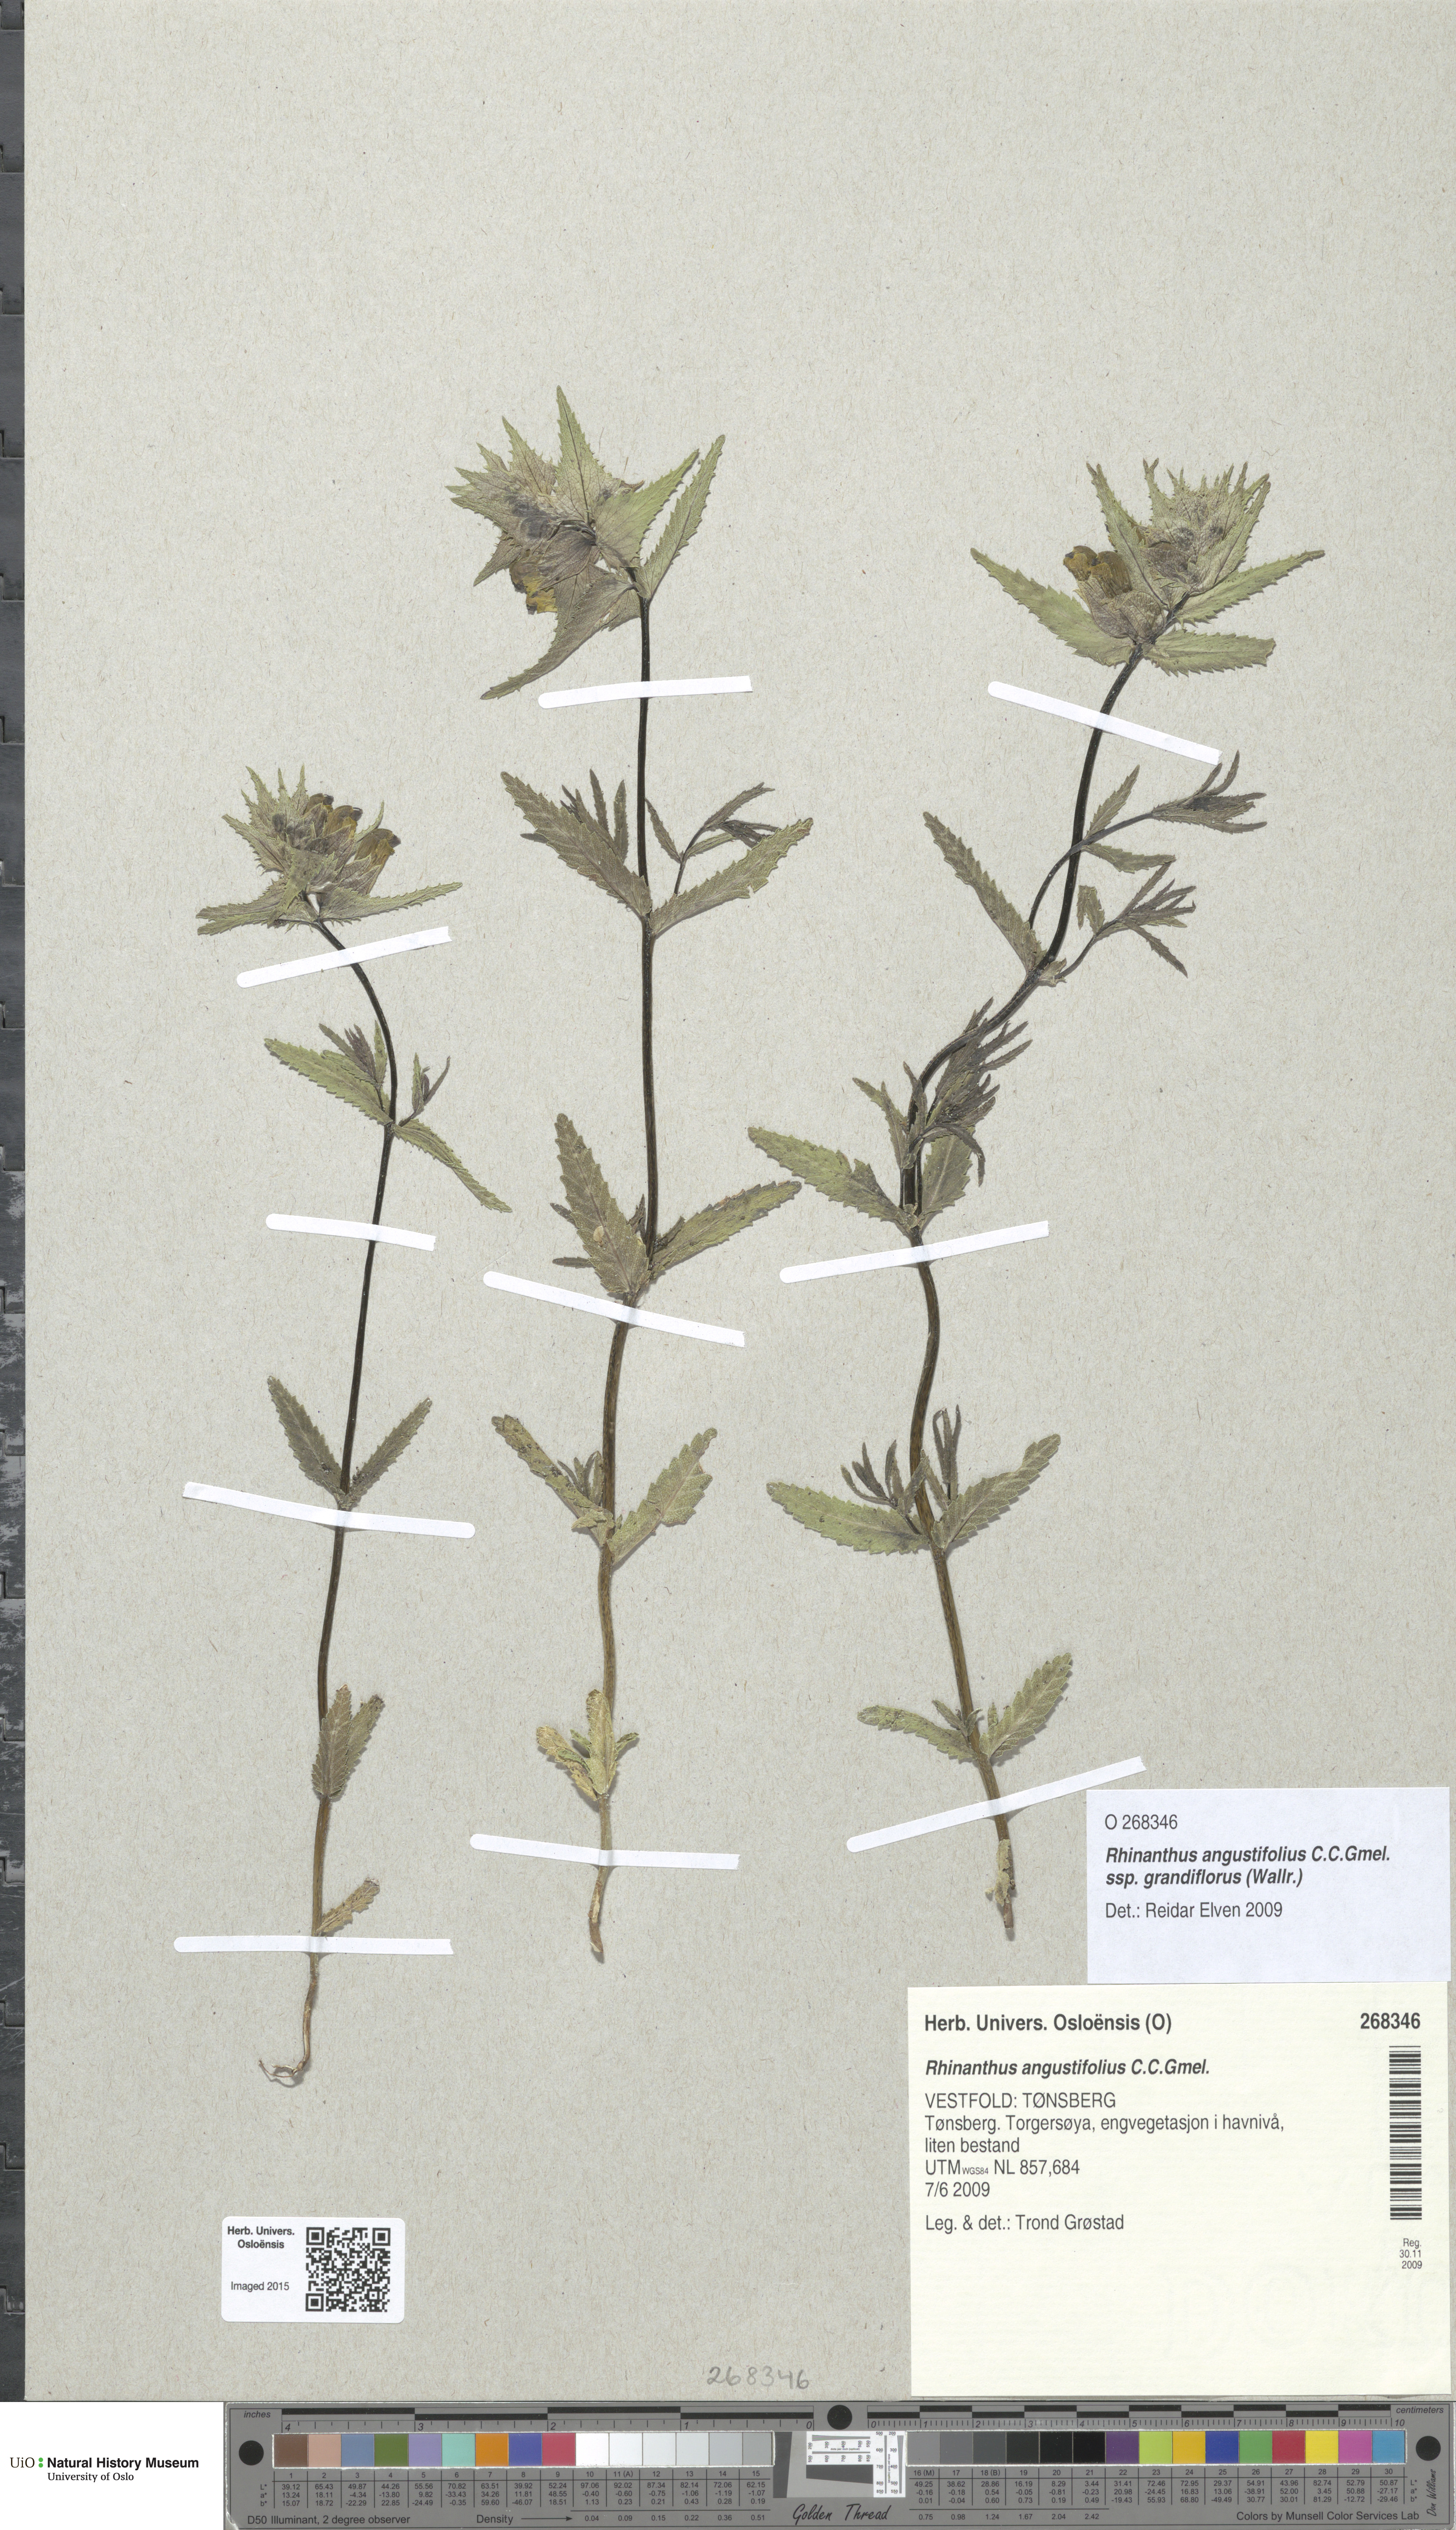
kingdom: Plantae
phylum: Tracheophyta
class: Magnoliopsida
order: Lamiales
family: Orobanchaceae
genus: Rhinanthus
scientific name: Rhinanthus serotinus
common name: Late-flowering yellow rattle
